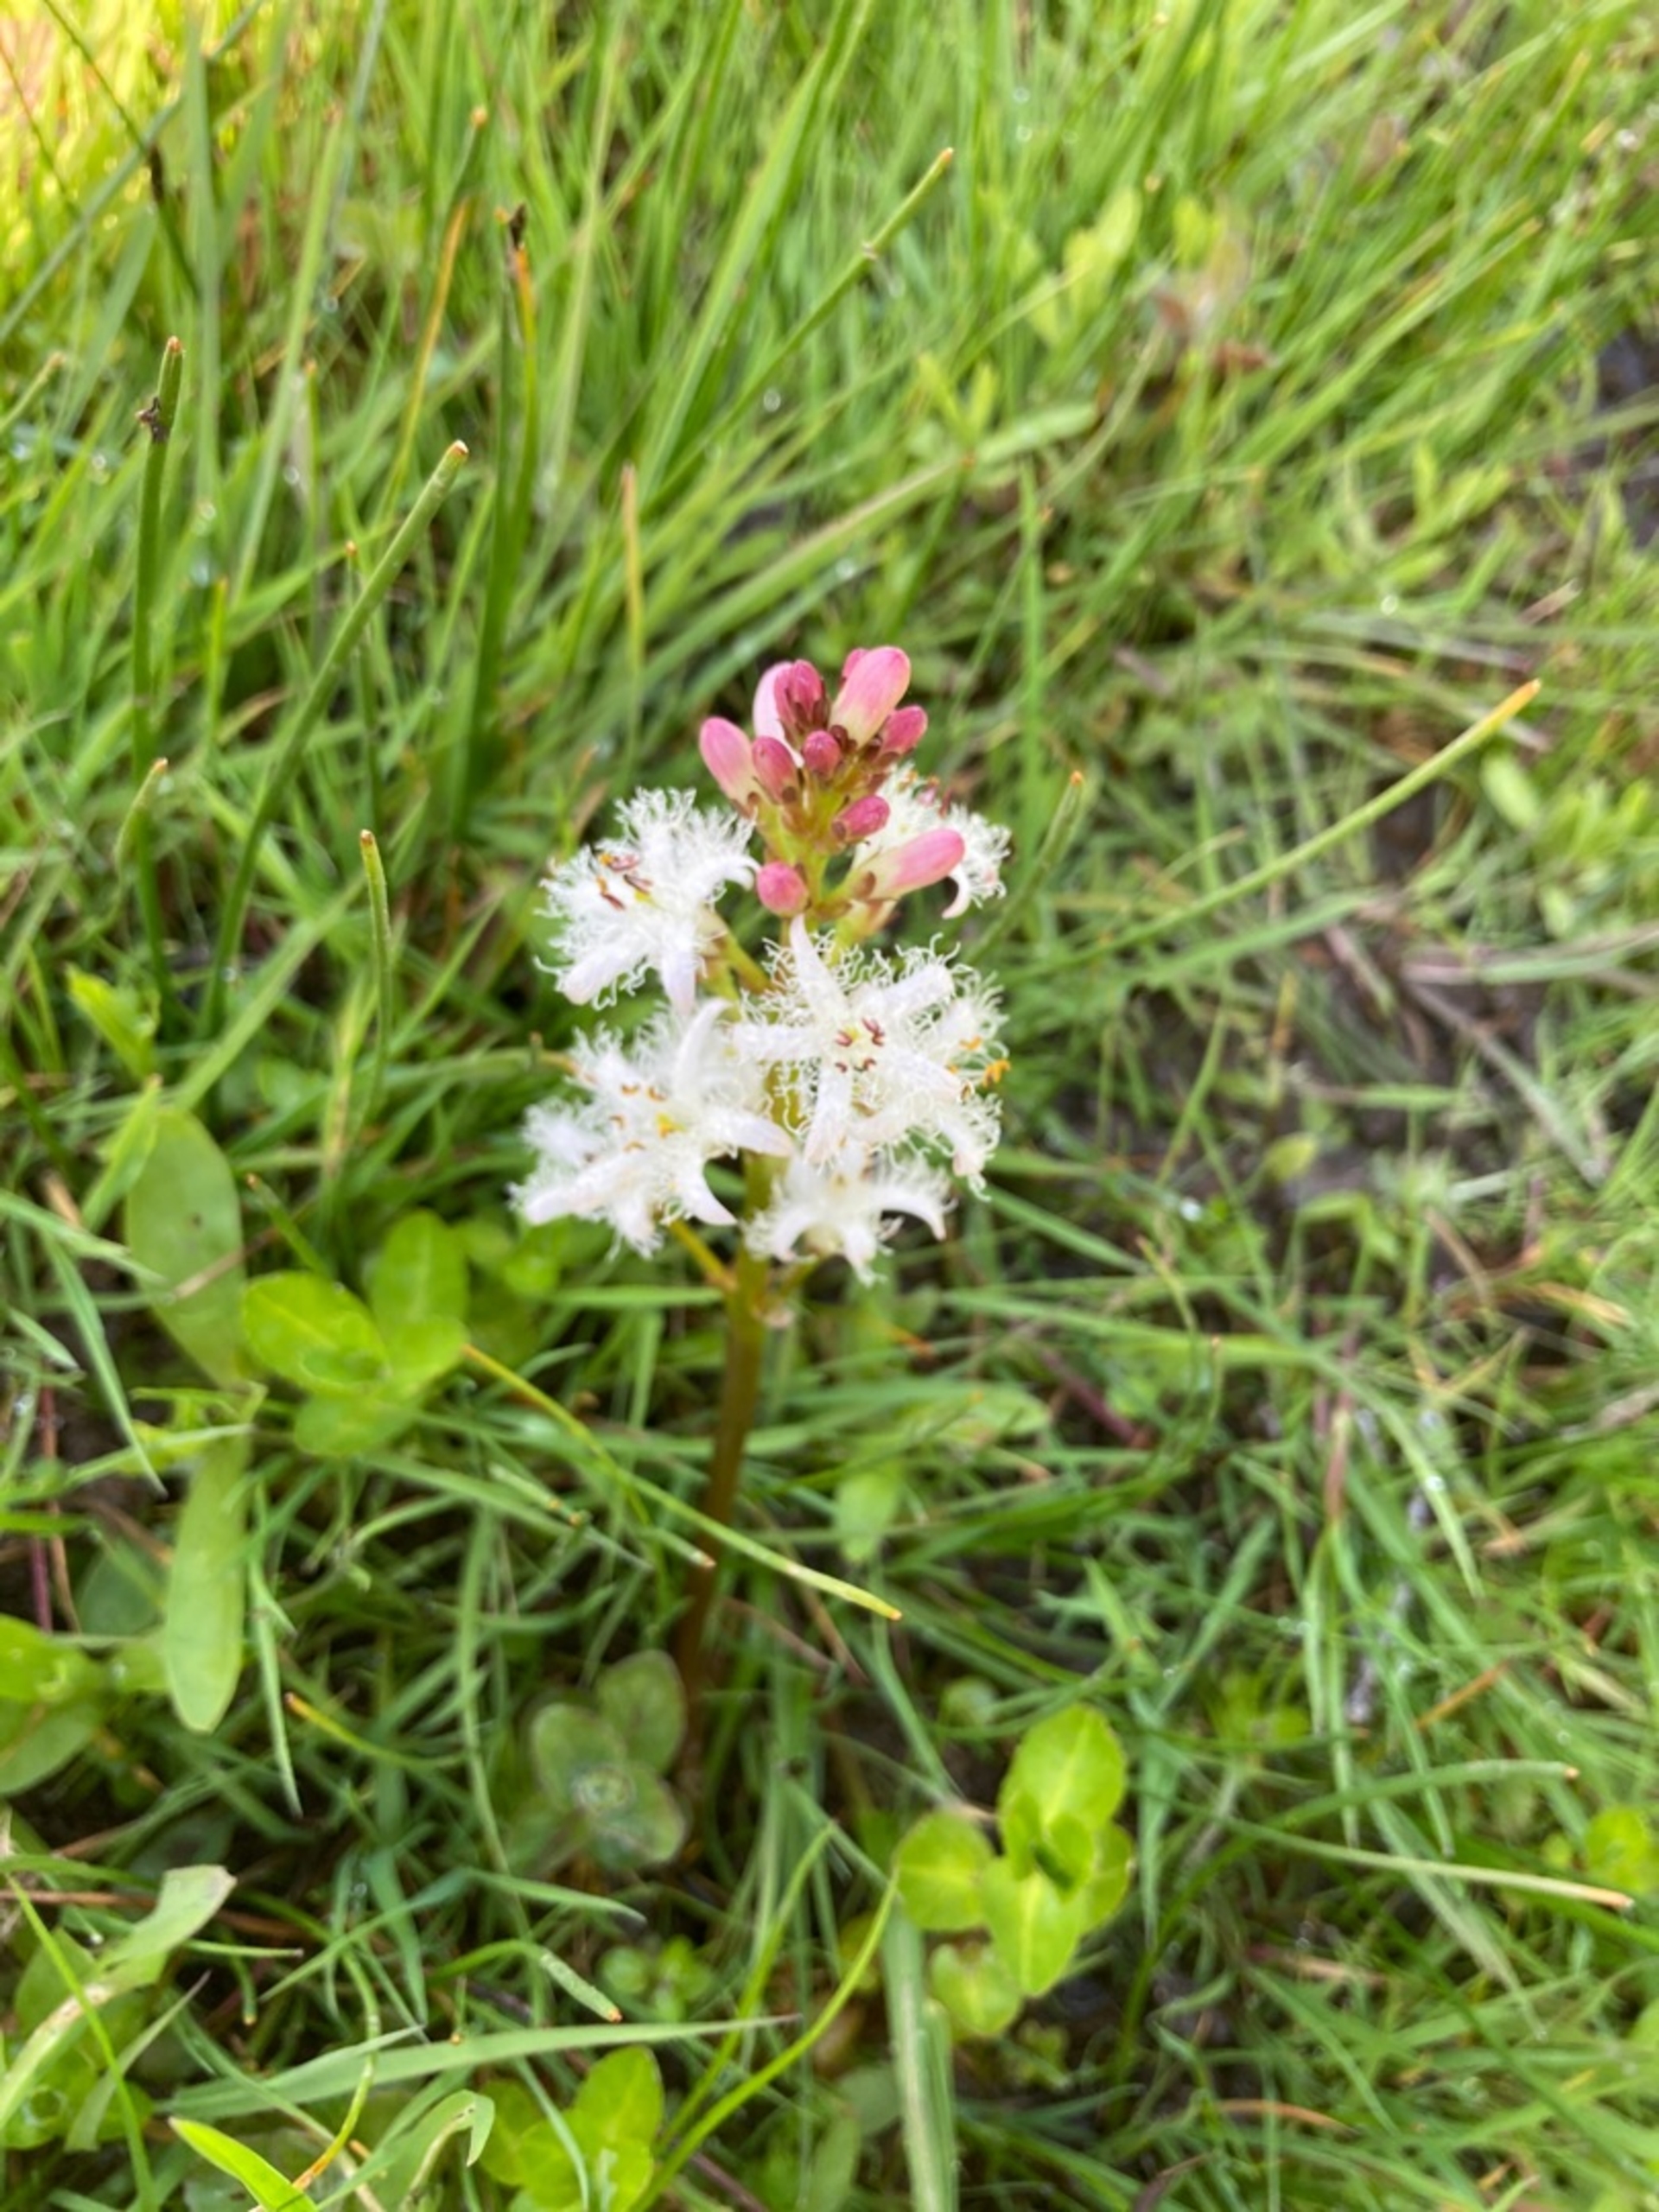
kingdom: Plantae
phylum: Tracheophyta
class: Magnoliopsida
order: Asterales
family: Menyanthaceae
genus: Menyanthes
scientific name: Menyanthes trifoliata
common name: Bukkeblad
